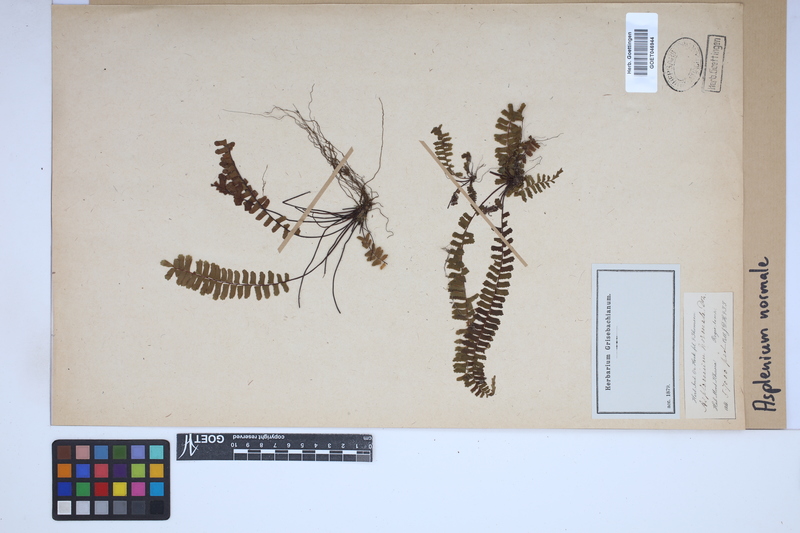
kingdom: Plantae
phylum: Tracheophyta
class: Polypodiopsida
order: Polypodiales
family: Aspleniaceae
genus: Asplenium
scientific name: Asplenium normale
